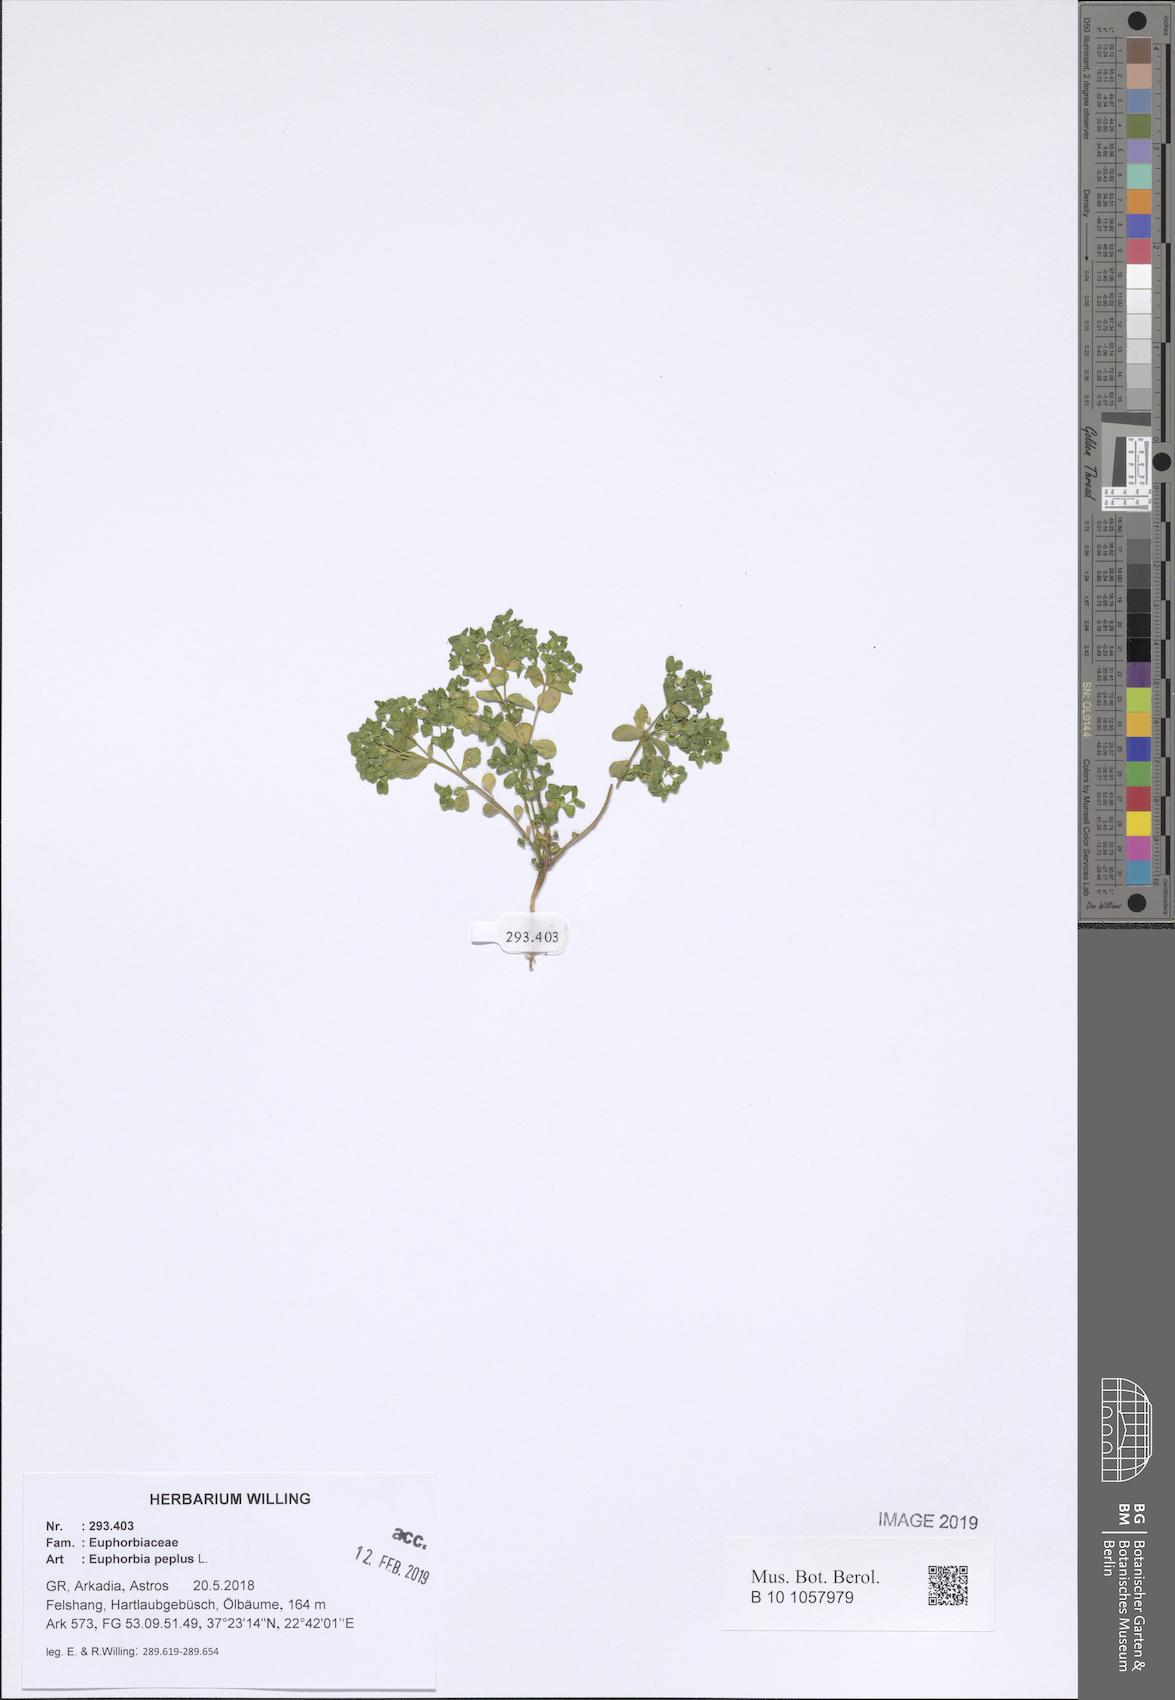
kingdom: Plantae
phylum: Tracheophyta
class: Magnoliopsida
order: Malpighiales
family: Euphorbiaceae
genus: Euphorbia
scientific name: Euphorbia peplus
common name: Petty spurge
